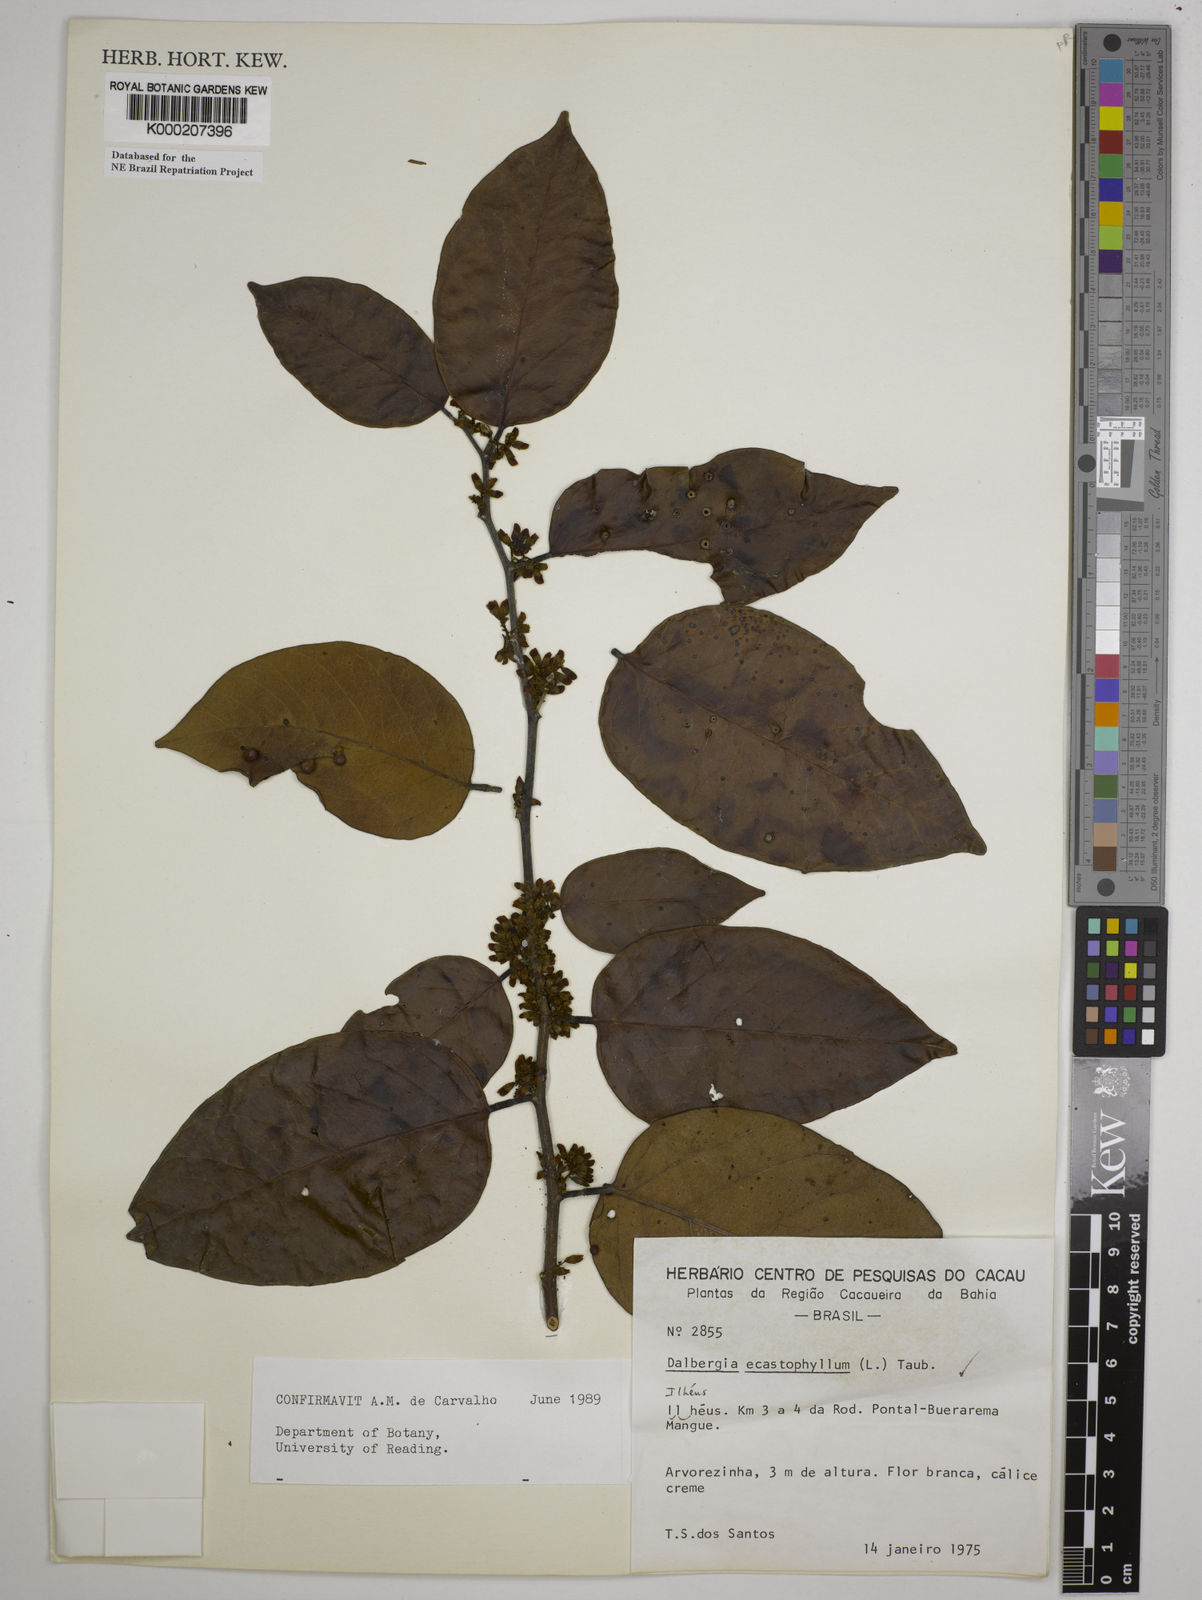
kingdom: Plantae
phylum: Tracheophyta
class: Magnoliopsida
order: Fabales
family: Fabaceae
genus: Dalbergia
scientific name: Dalbergia
